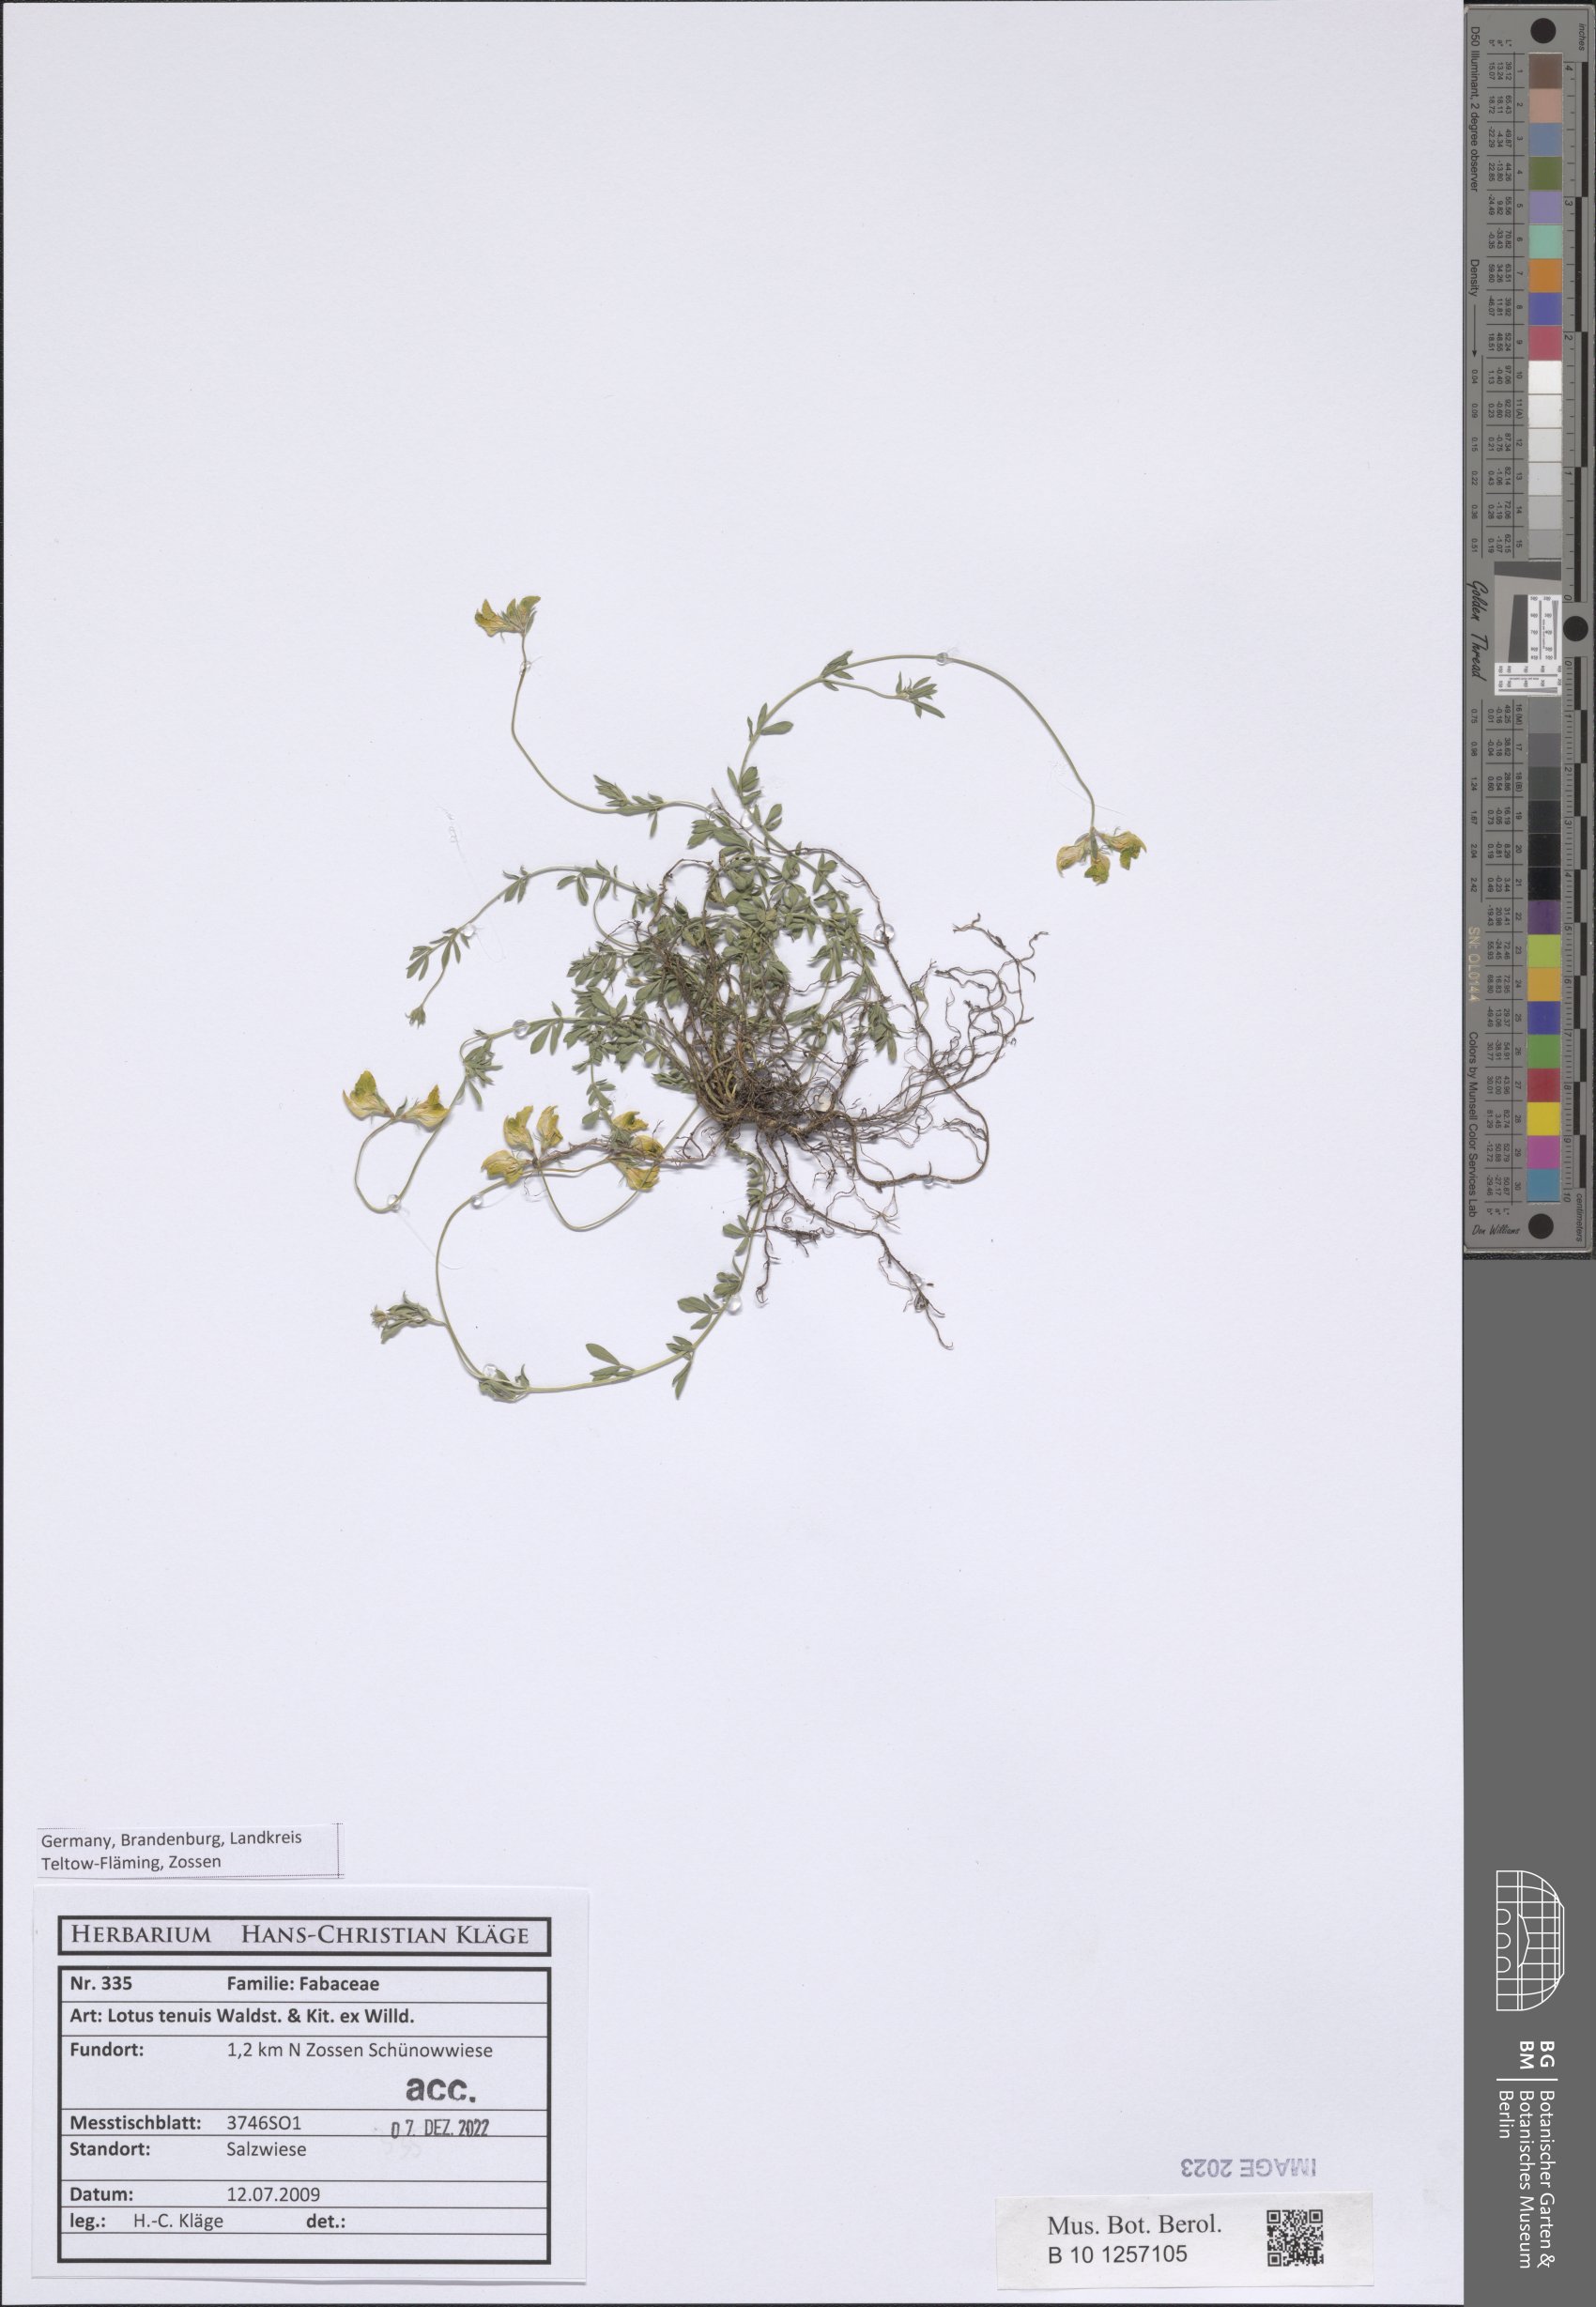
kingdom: Plantae
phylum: Tracheophyta
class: Magnoliopsida
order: Fabales
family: Fabaceae
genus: Lotus
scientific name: Lotus tenuis
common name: Narrow-leaved bird's-foot-trefoil
